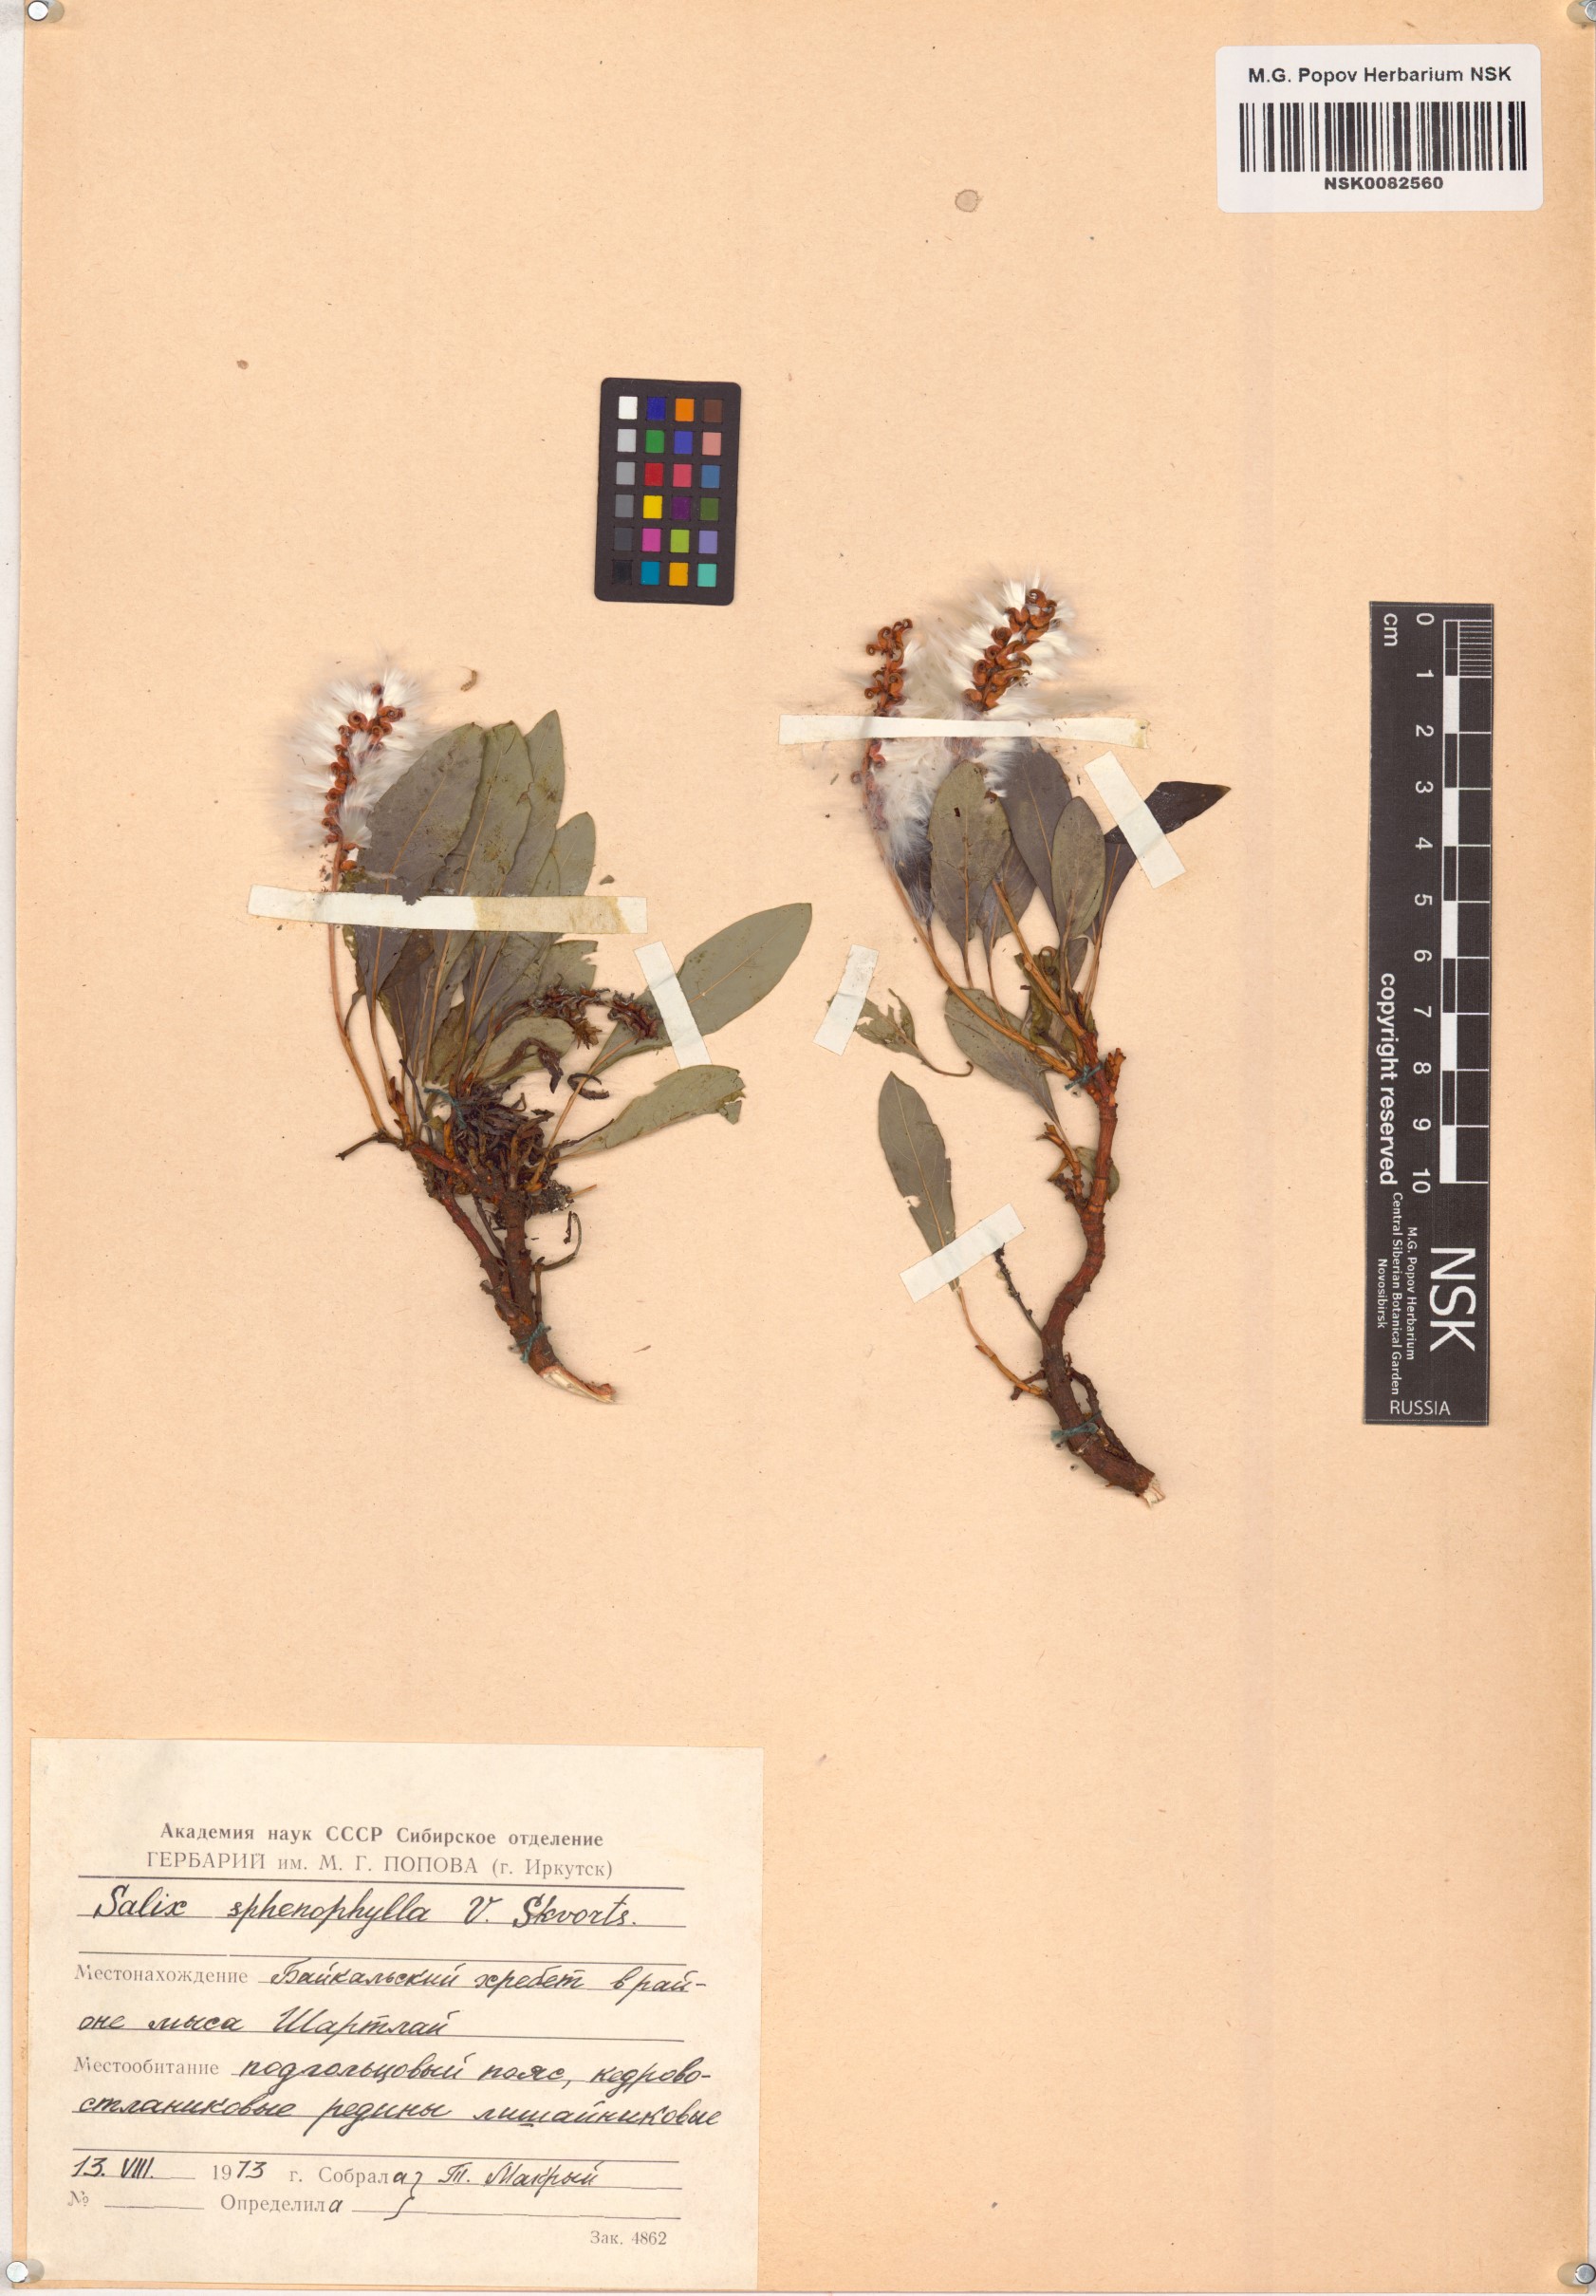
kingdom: Plantae
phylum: Tracheophyta
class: Magnoliopsida
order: Malpighiales
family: Salicaceae
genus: Salix
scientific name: Salix sphenophylla
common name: Wedge-leaved willow
